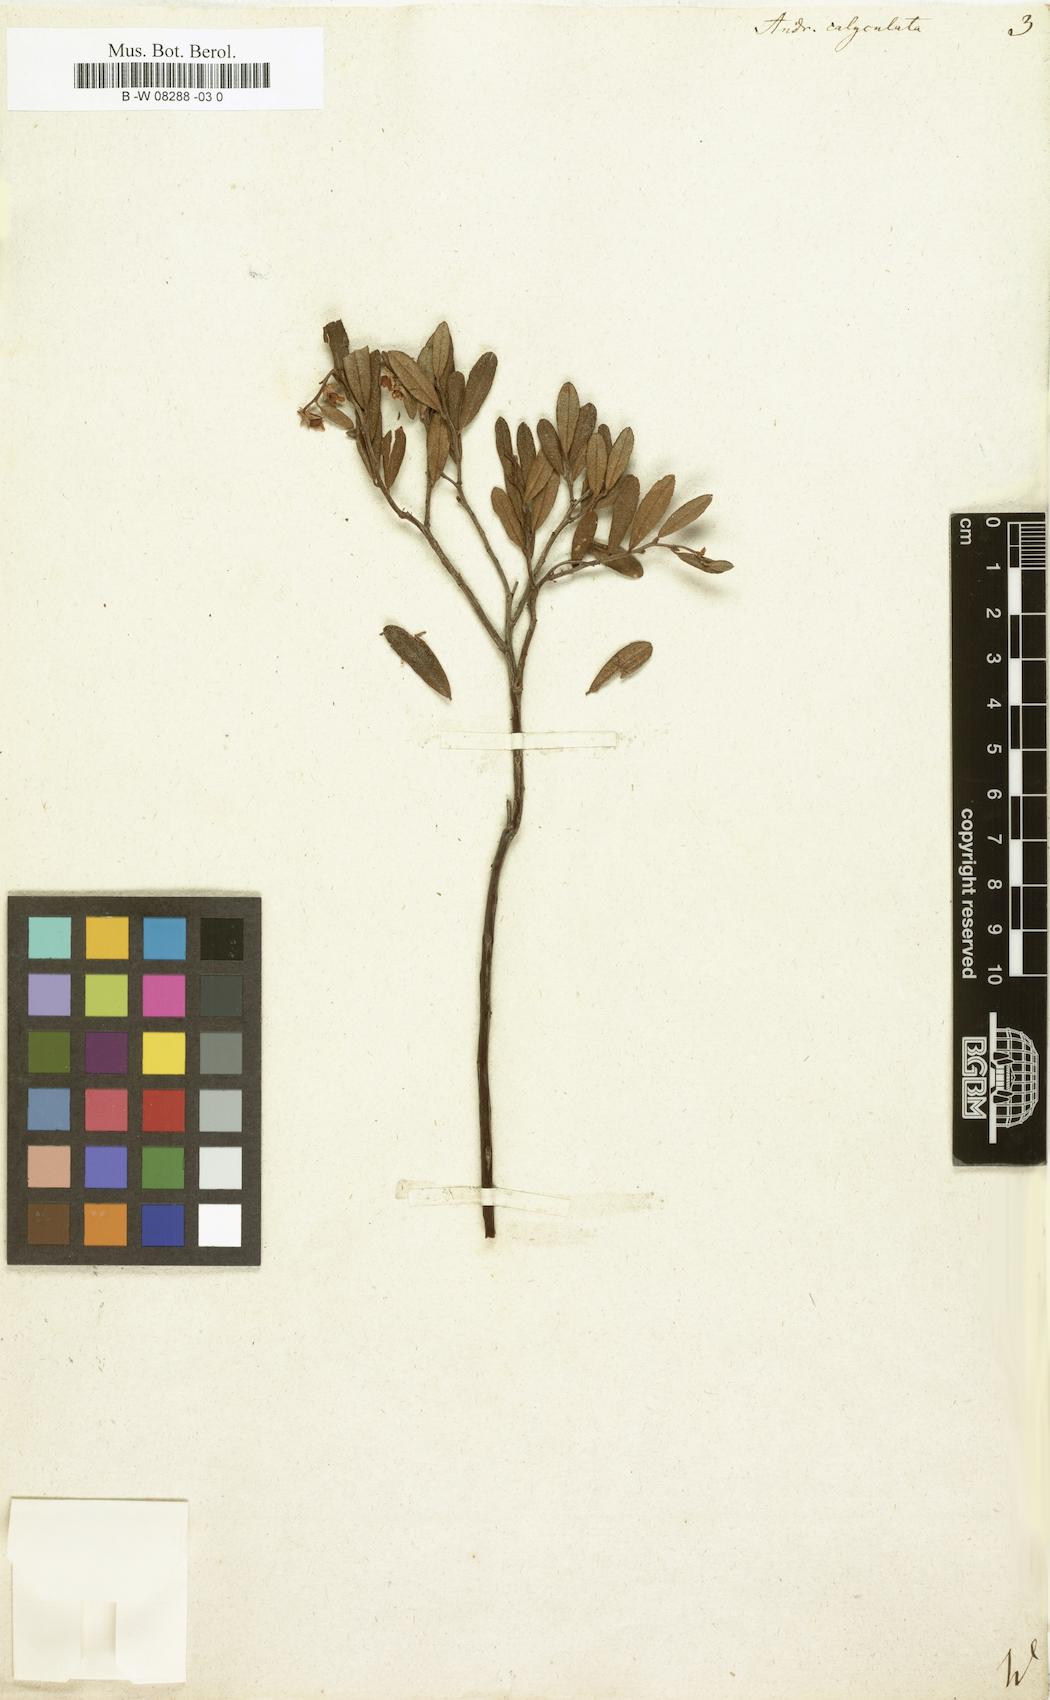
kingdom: Plantae
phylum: Tracheophyta
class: Magnoliopsida
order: Ericales
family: Ericaceae
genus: Chamaedaphne
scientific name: Chamaedaphne calyculata
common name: Leatherleaf
